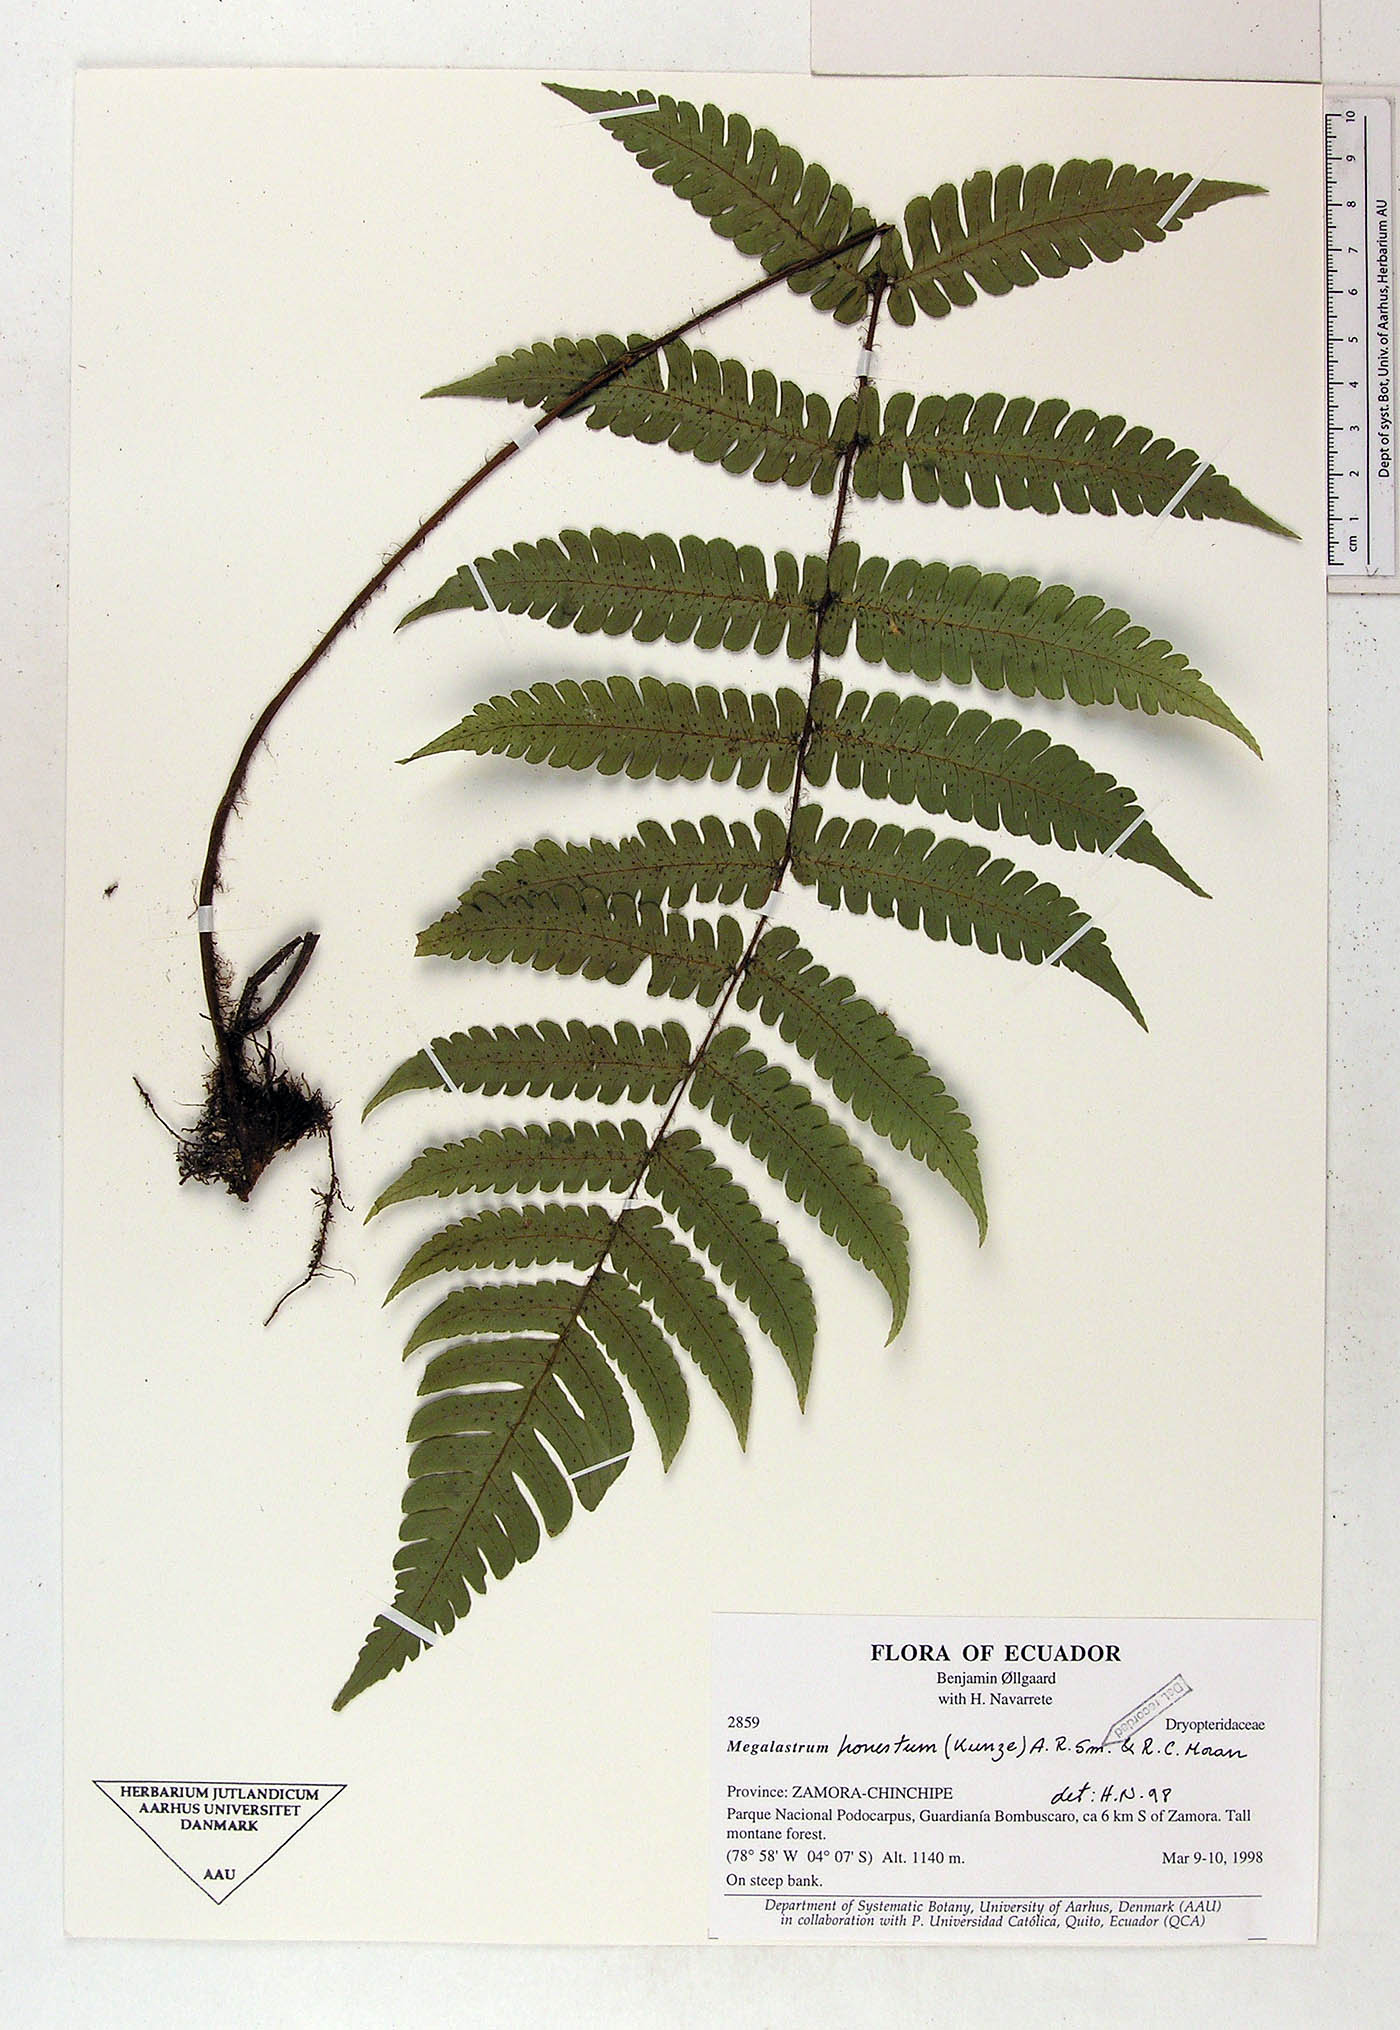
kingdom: Plantae
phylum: Tracheophyta
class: Polypodiopsida
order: Polypodiales
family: Dryopteridaceae
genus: Megalastrum
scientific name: Megalastrum fibrillosum
